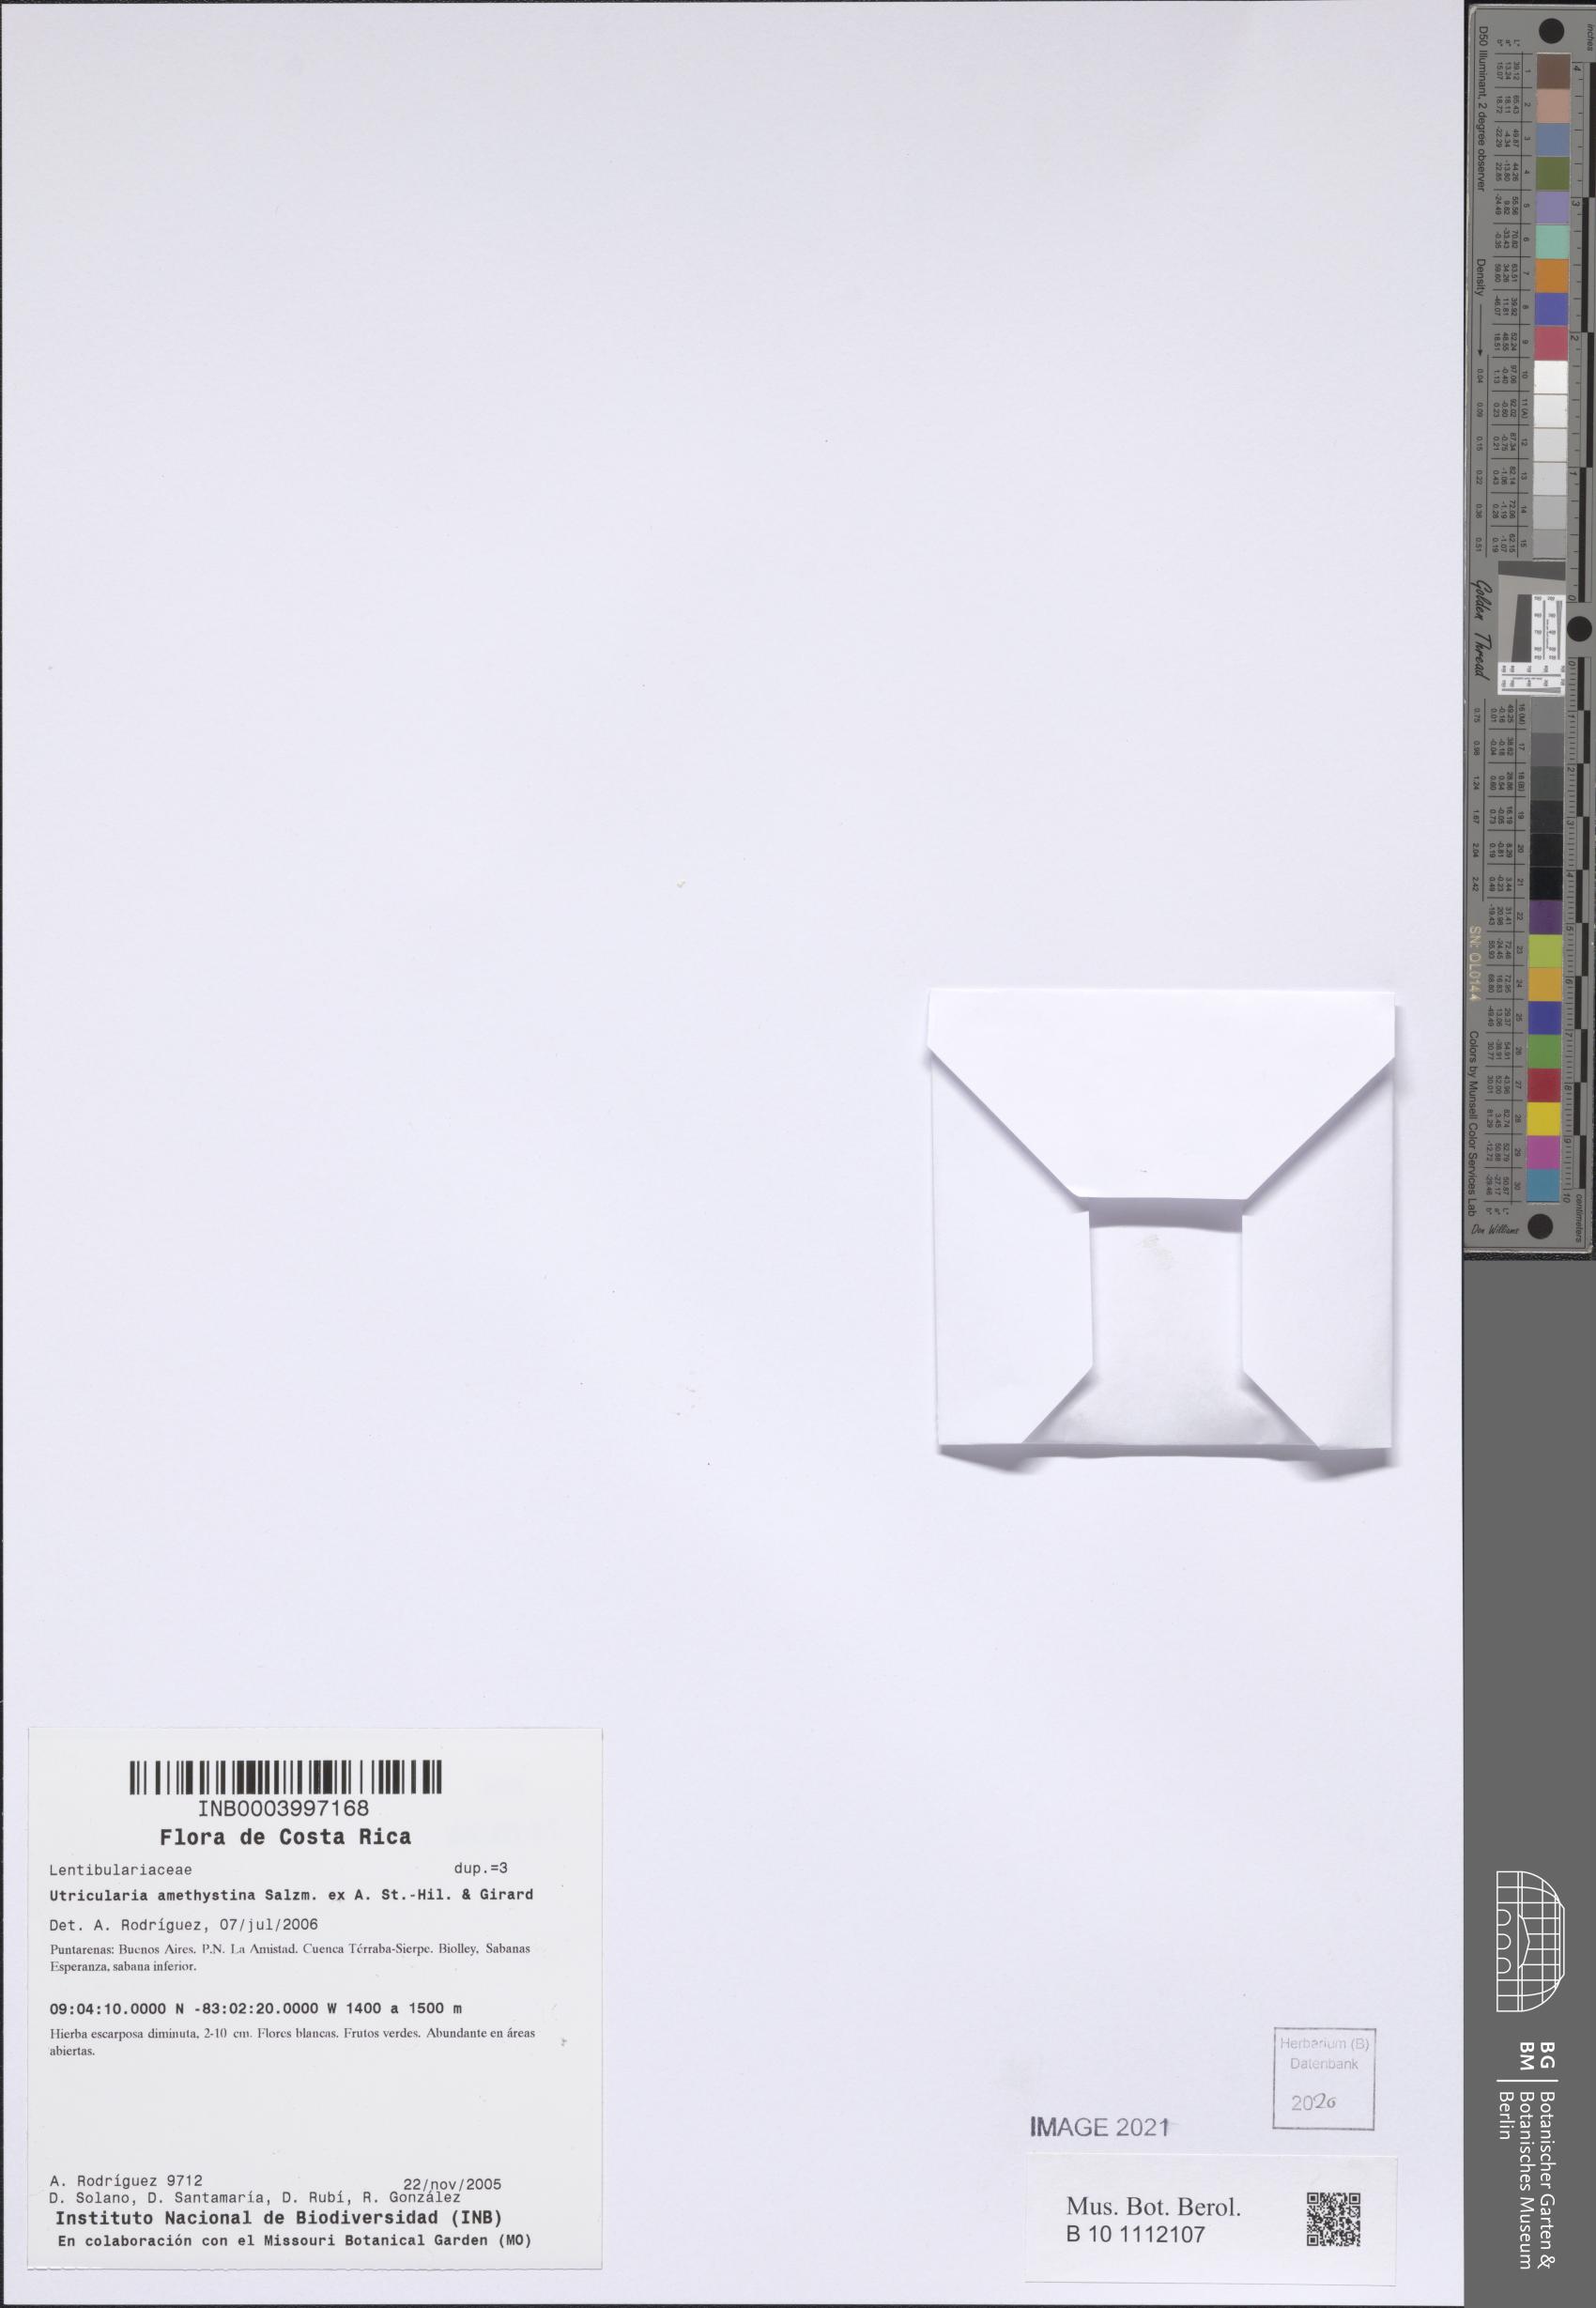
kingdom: Plantae
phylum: Tracheophyta
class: Magnoliopsida
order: Lamiales
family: Lentibulariaceae
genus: Utricularia
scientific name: Utricularia amethystina
